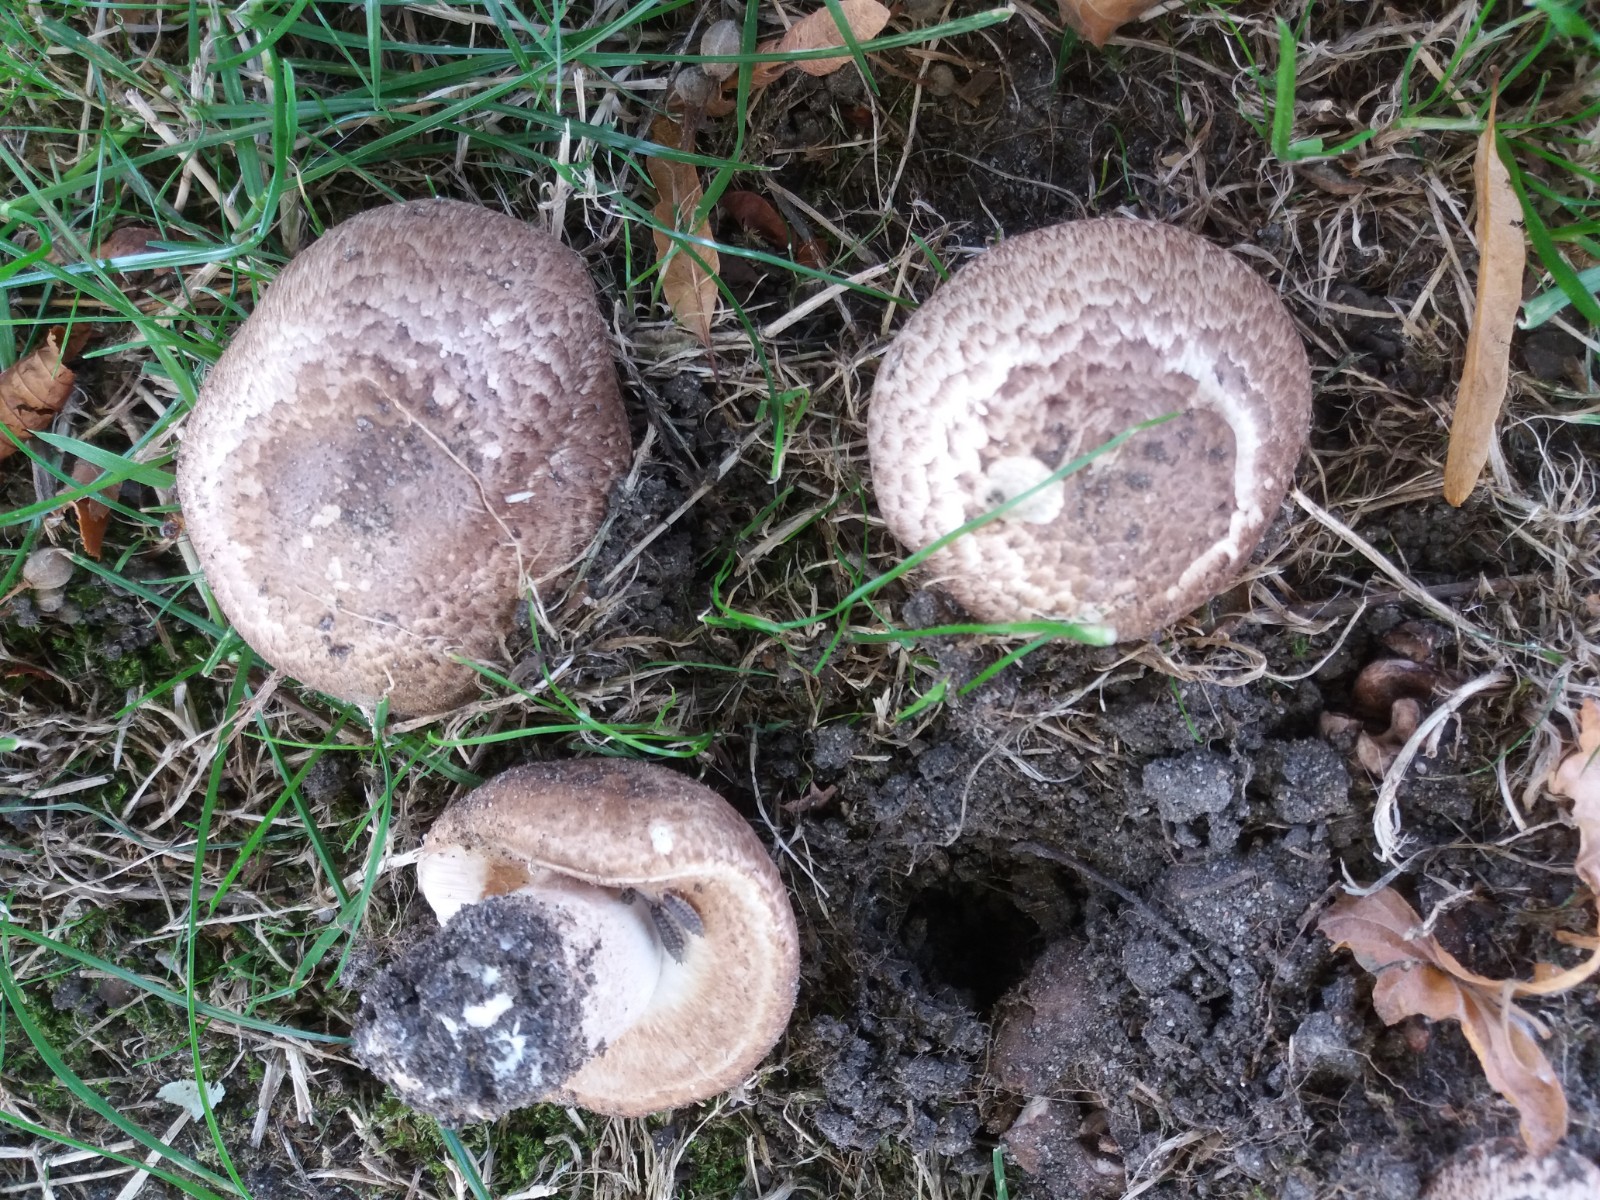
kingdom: Fungi
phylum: Basidiomycota
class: Agaricomycetes
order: Agaricales
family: Agaricaceae
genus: Agaricus
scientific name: Agaricus subperonatus
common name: knippe-champignon
